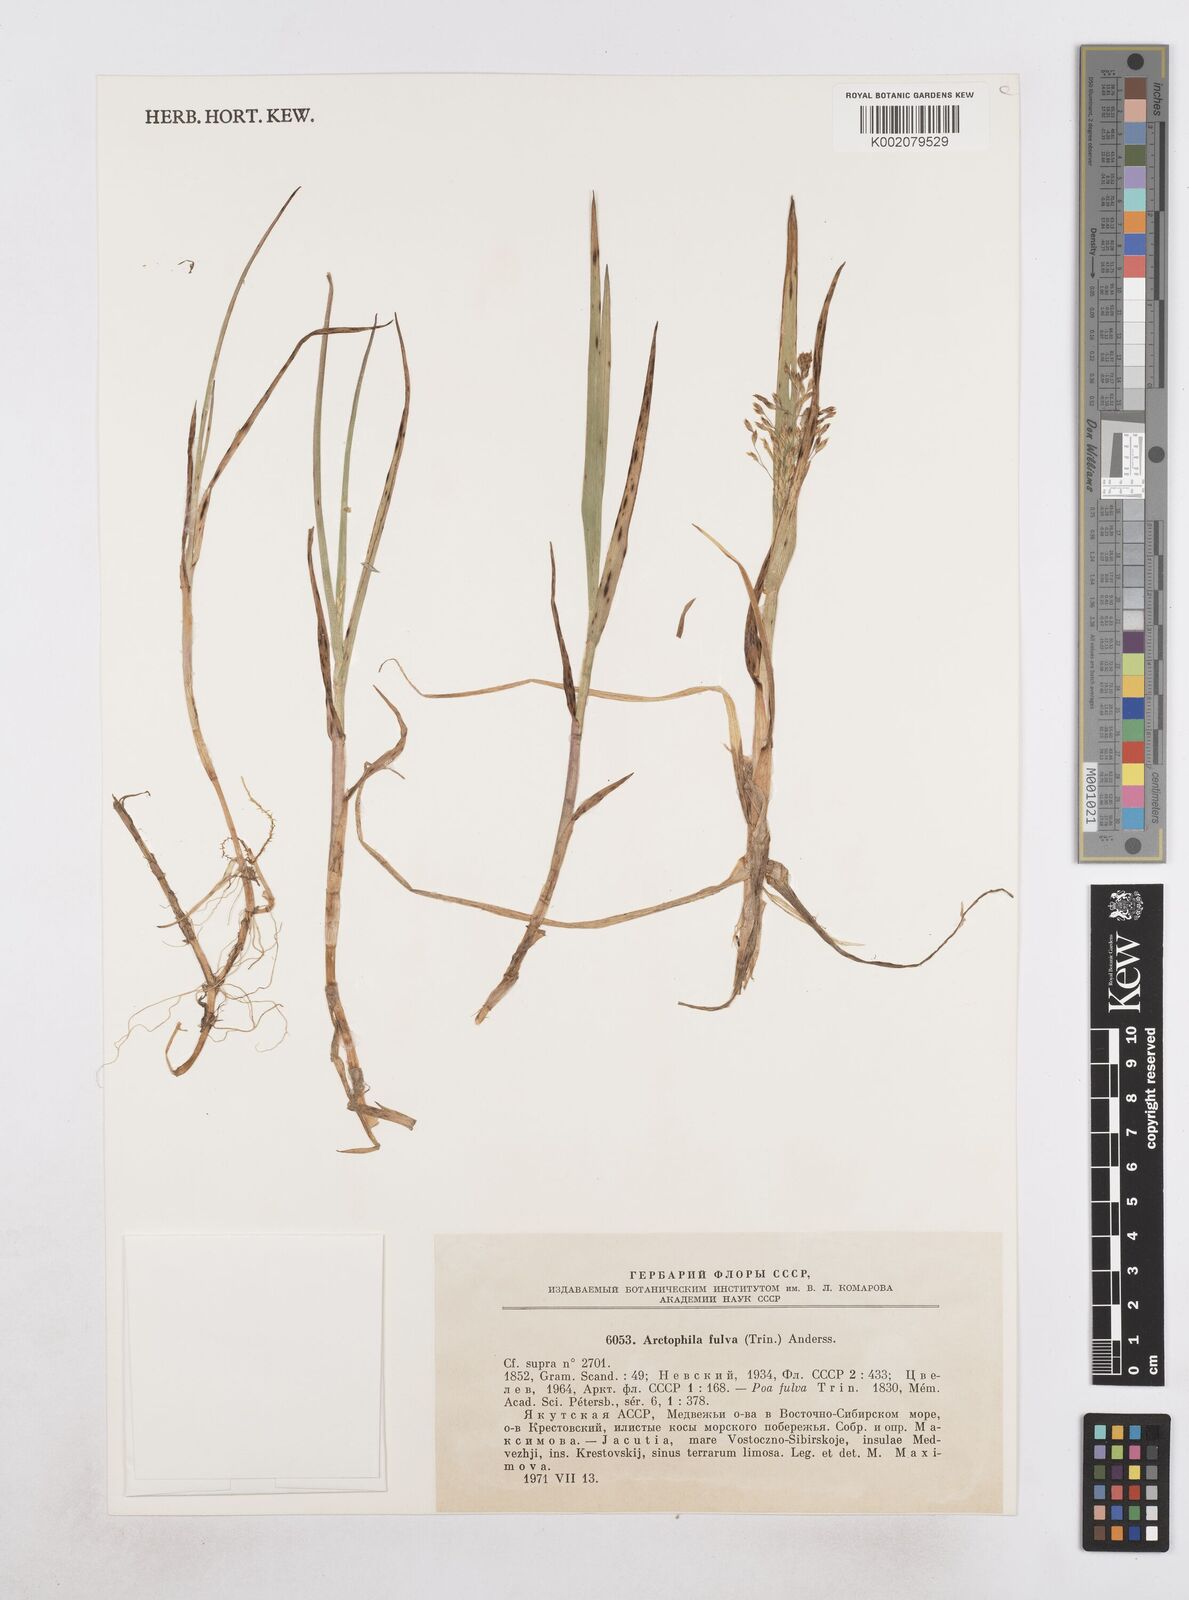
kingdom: Plantae
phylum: Tracheophyta
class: Liliopsida
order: Poales
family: Poaceae
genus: Dupontia
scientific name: Dupontia fulva
